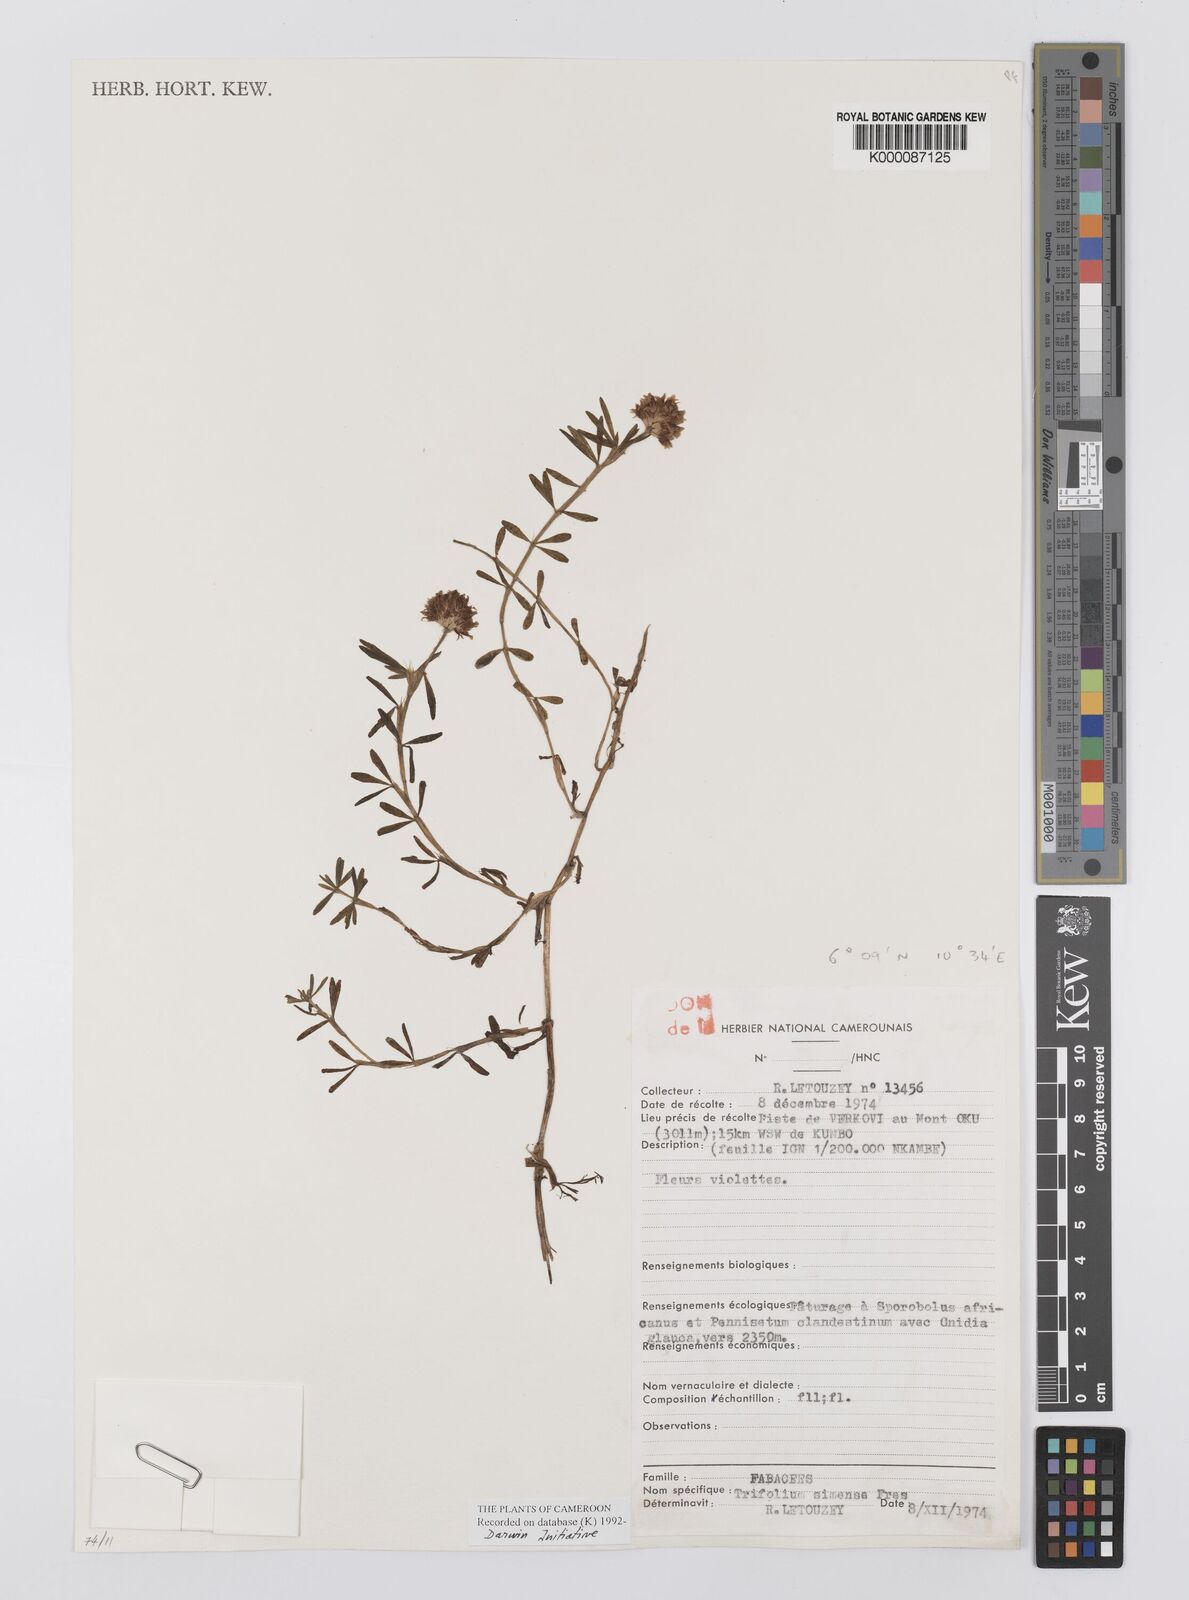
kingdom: Plantae
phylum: Tracheophyta
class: Magnoliopsida
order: Fabales
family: Fabaceae
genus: Trifolium
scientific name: Trifolium simense
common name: Simen clover
